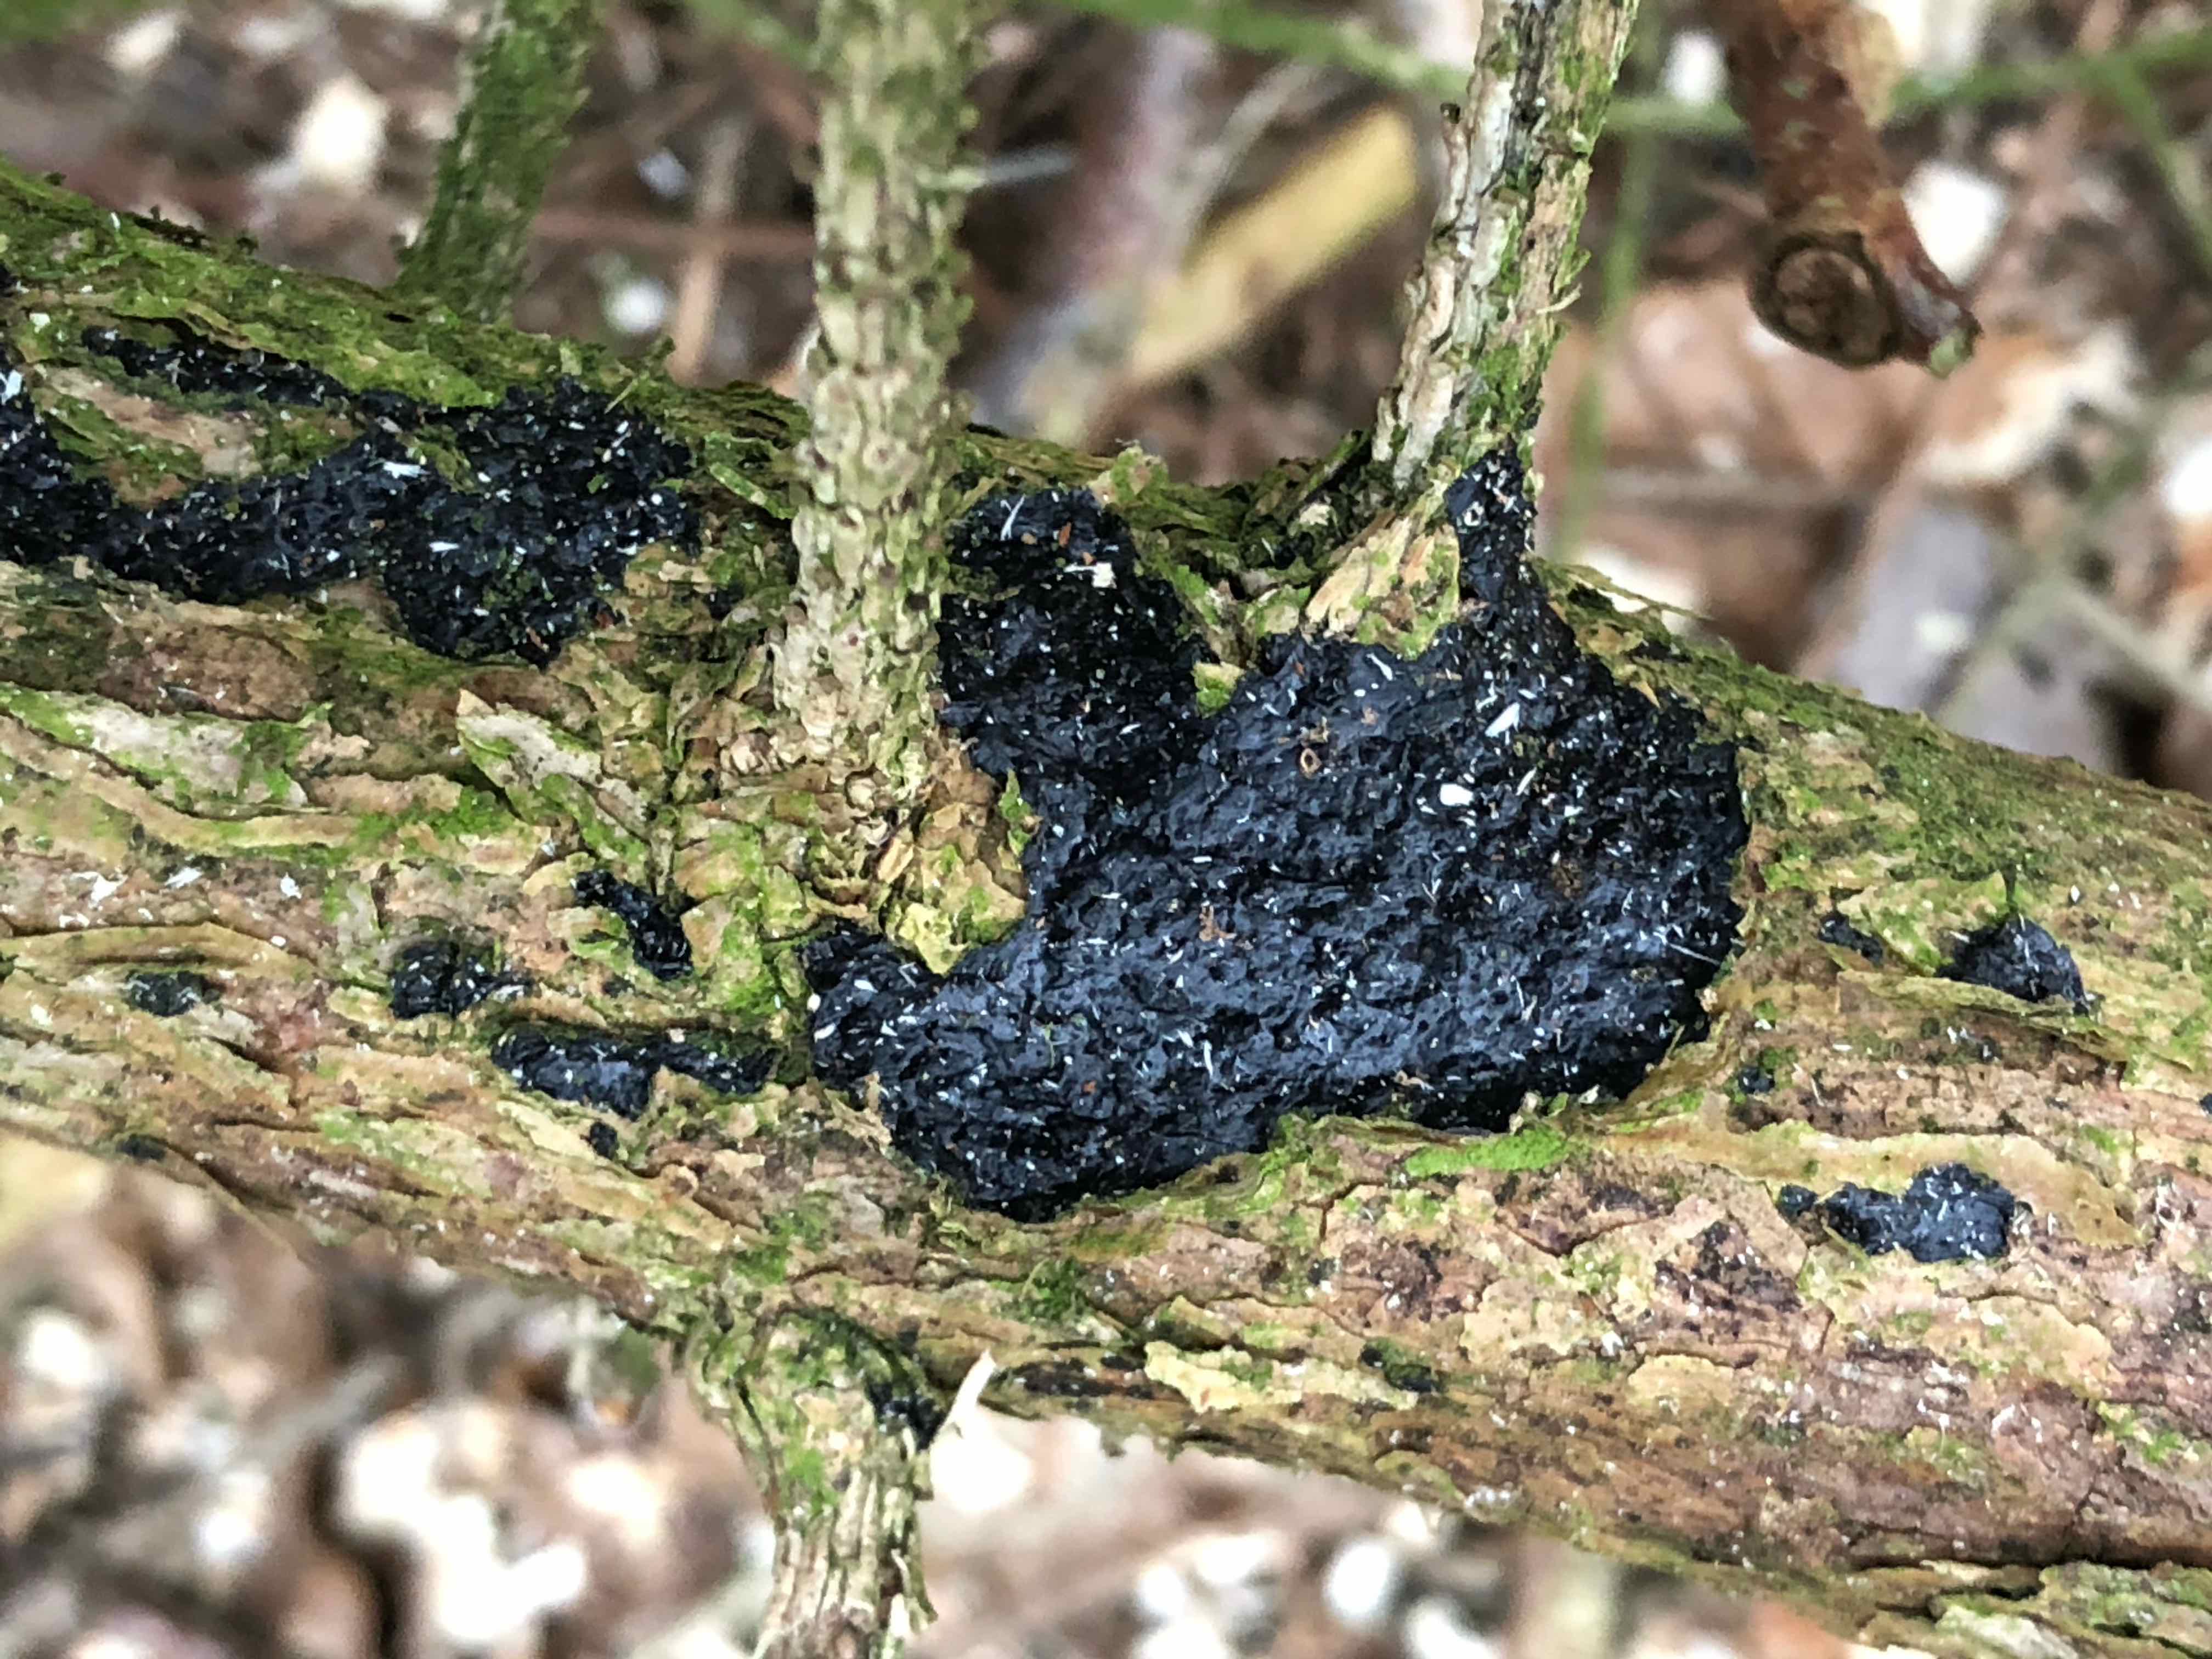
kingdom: Fungi
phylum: Basidiomycota
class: Agaricomycetes
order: Auriculariales
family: Auriculariaceae
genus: Exidia
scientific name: Exidia pithya
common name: gran-bævretop
